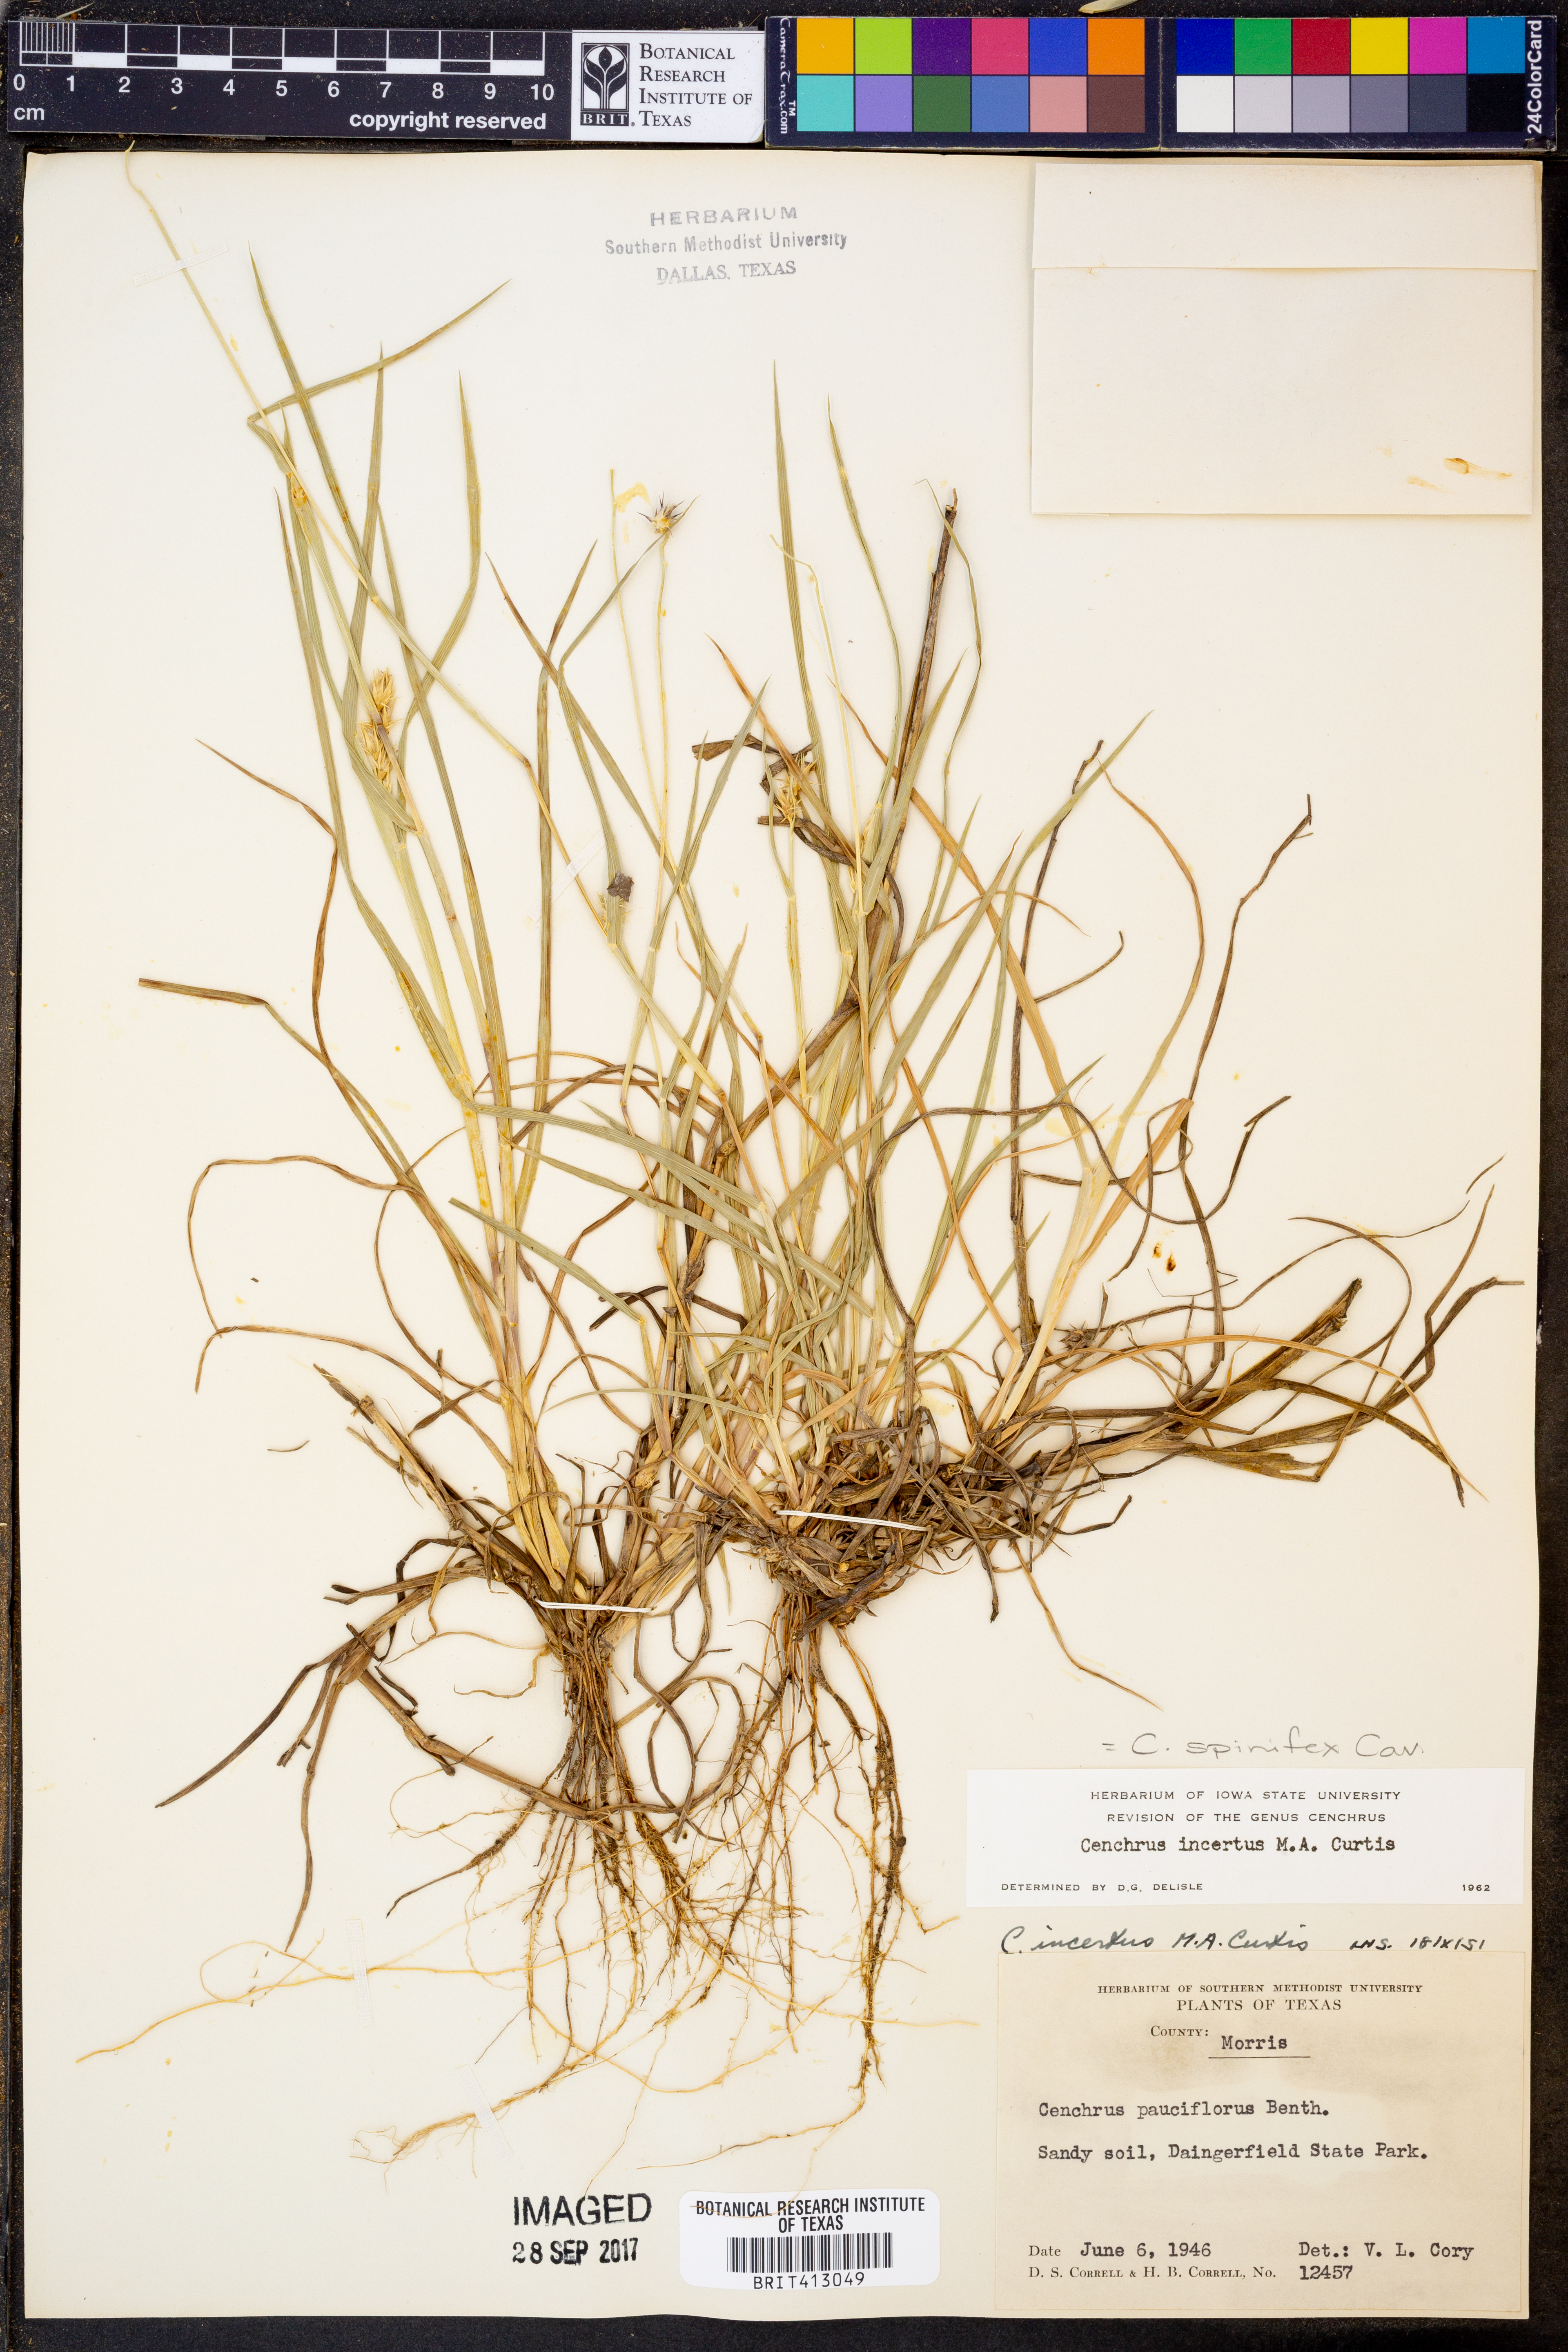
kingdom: Plantae
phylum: Tracheophyta
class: Liliopsida
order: Poales
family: Poaceae
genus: Cenchrus
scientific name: Cenchrus spinifex
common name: Coast sandbur
